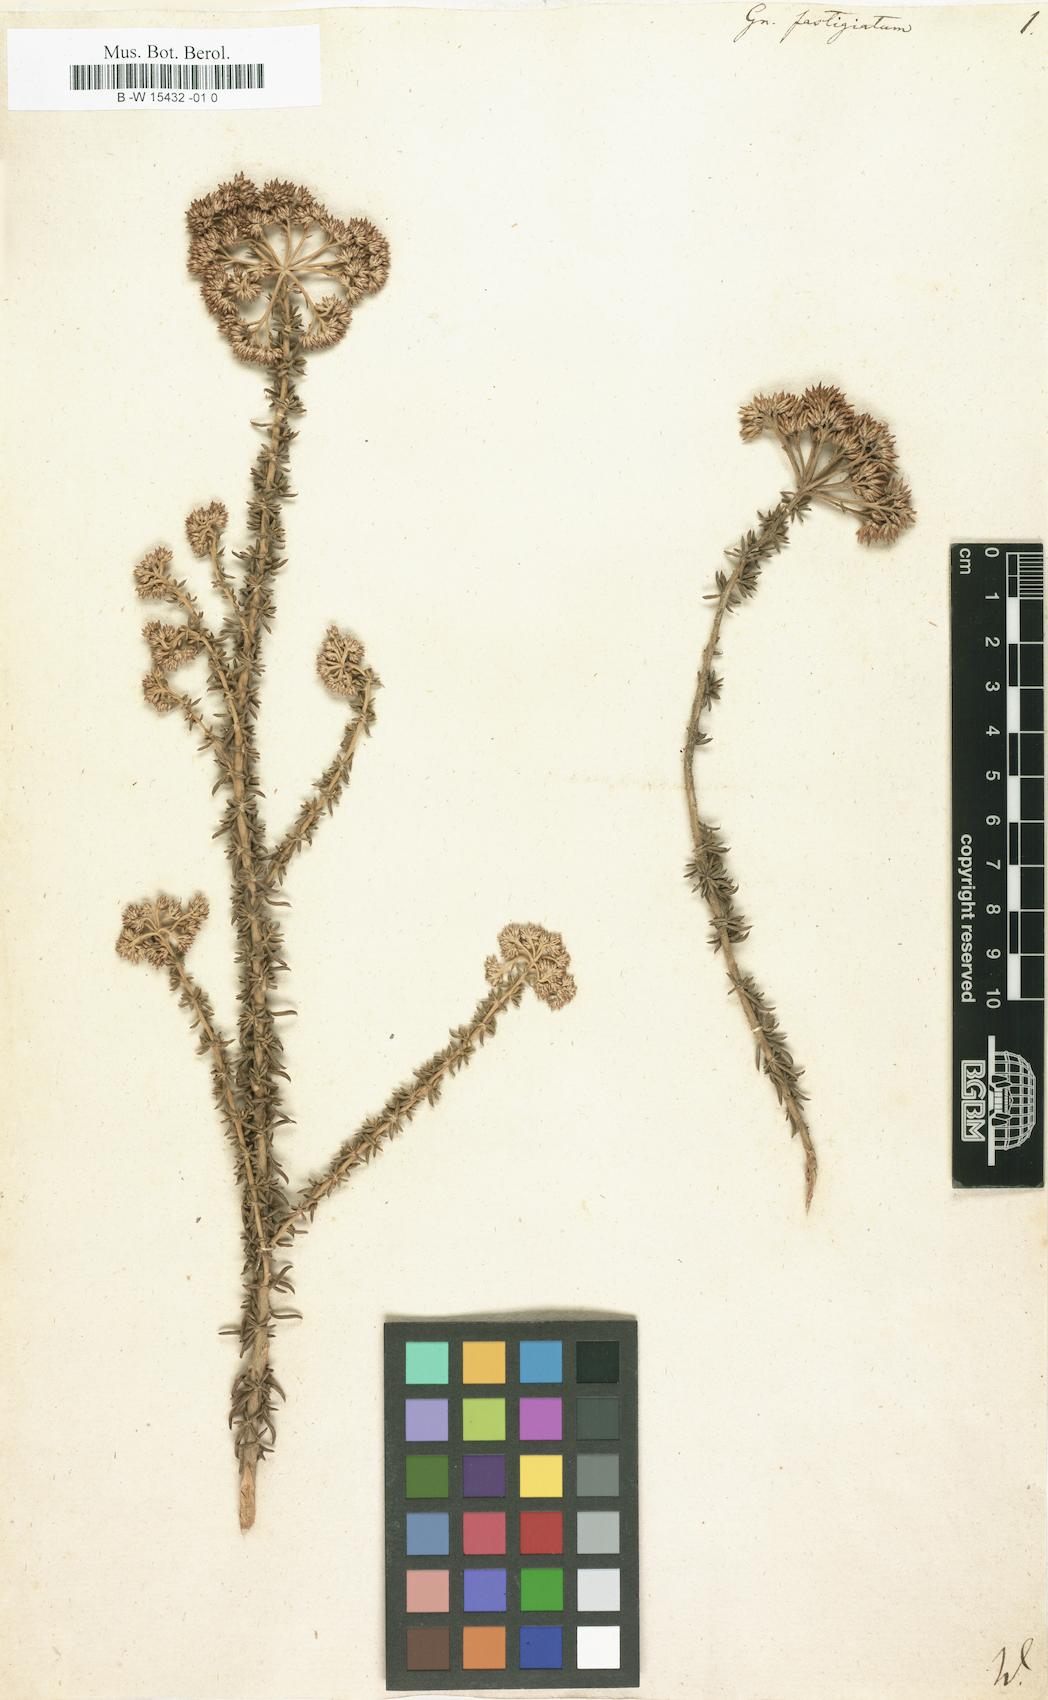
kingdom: Plantae
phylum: Tracheophyta
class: Magnoliopsida
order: Asterales
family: Asteraceae
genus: Metalasia
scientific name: Metalasia fastigiata
